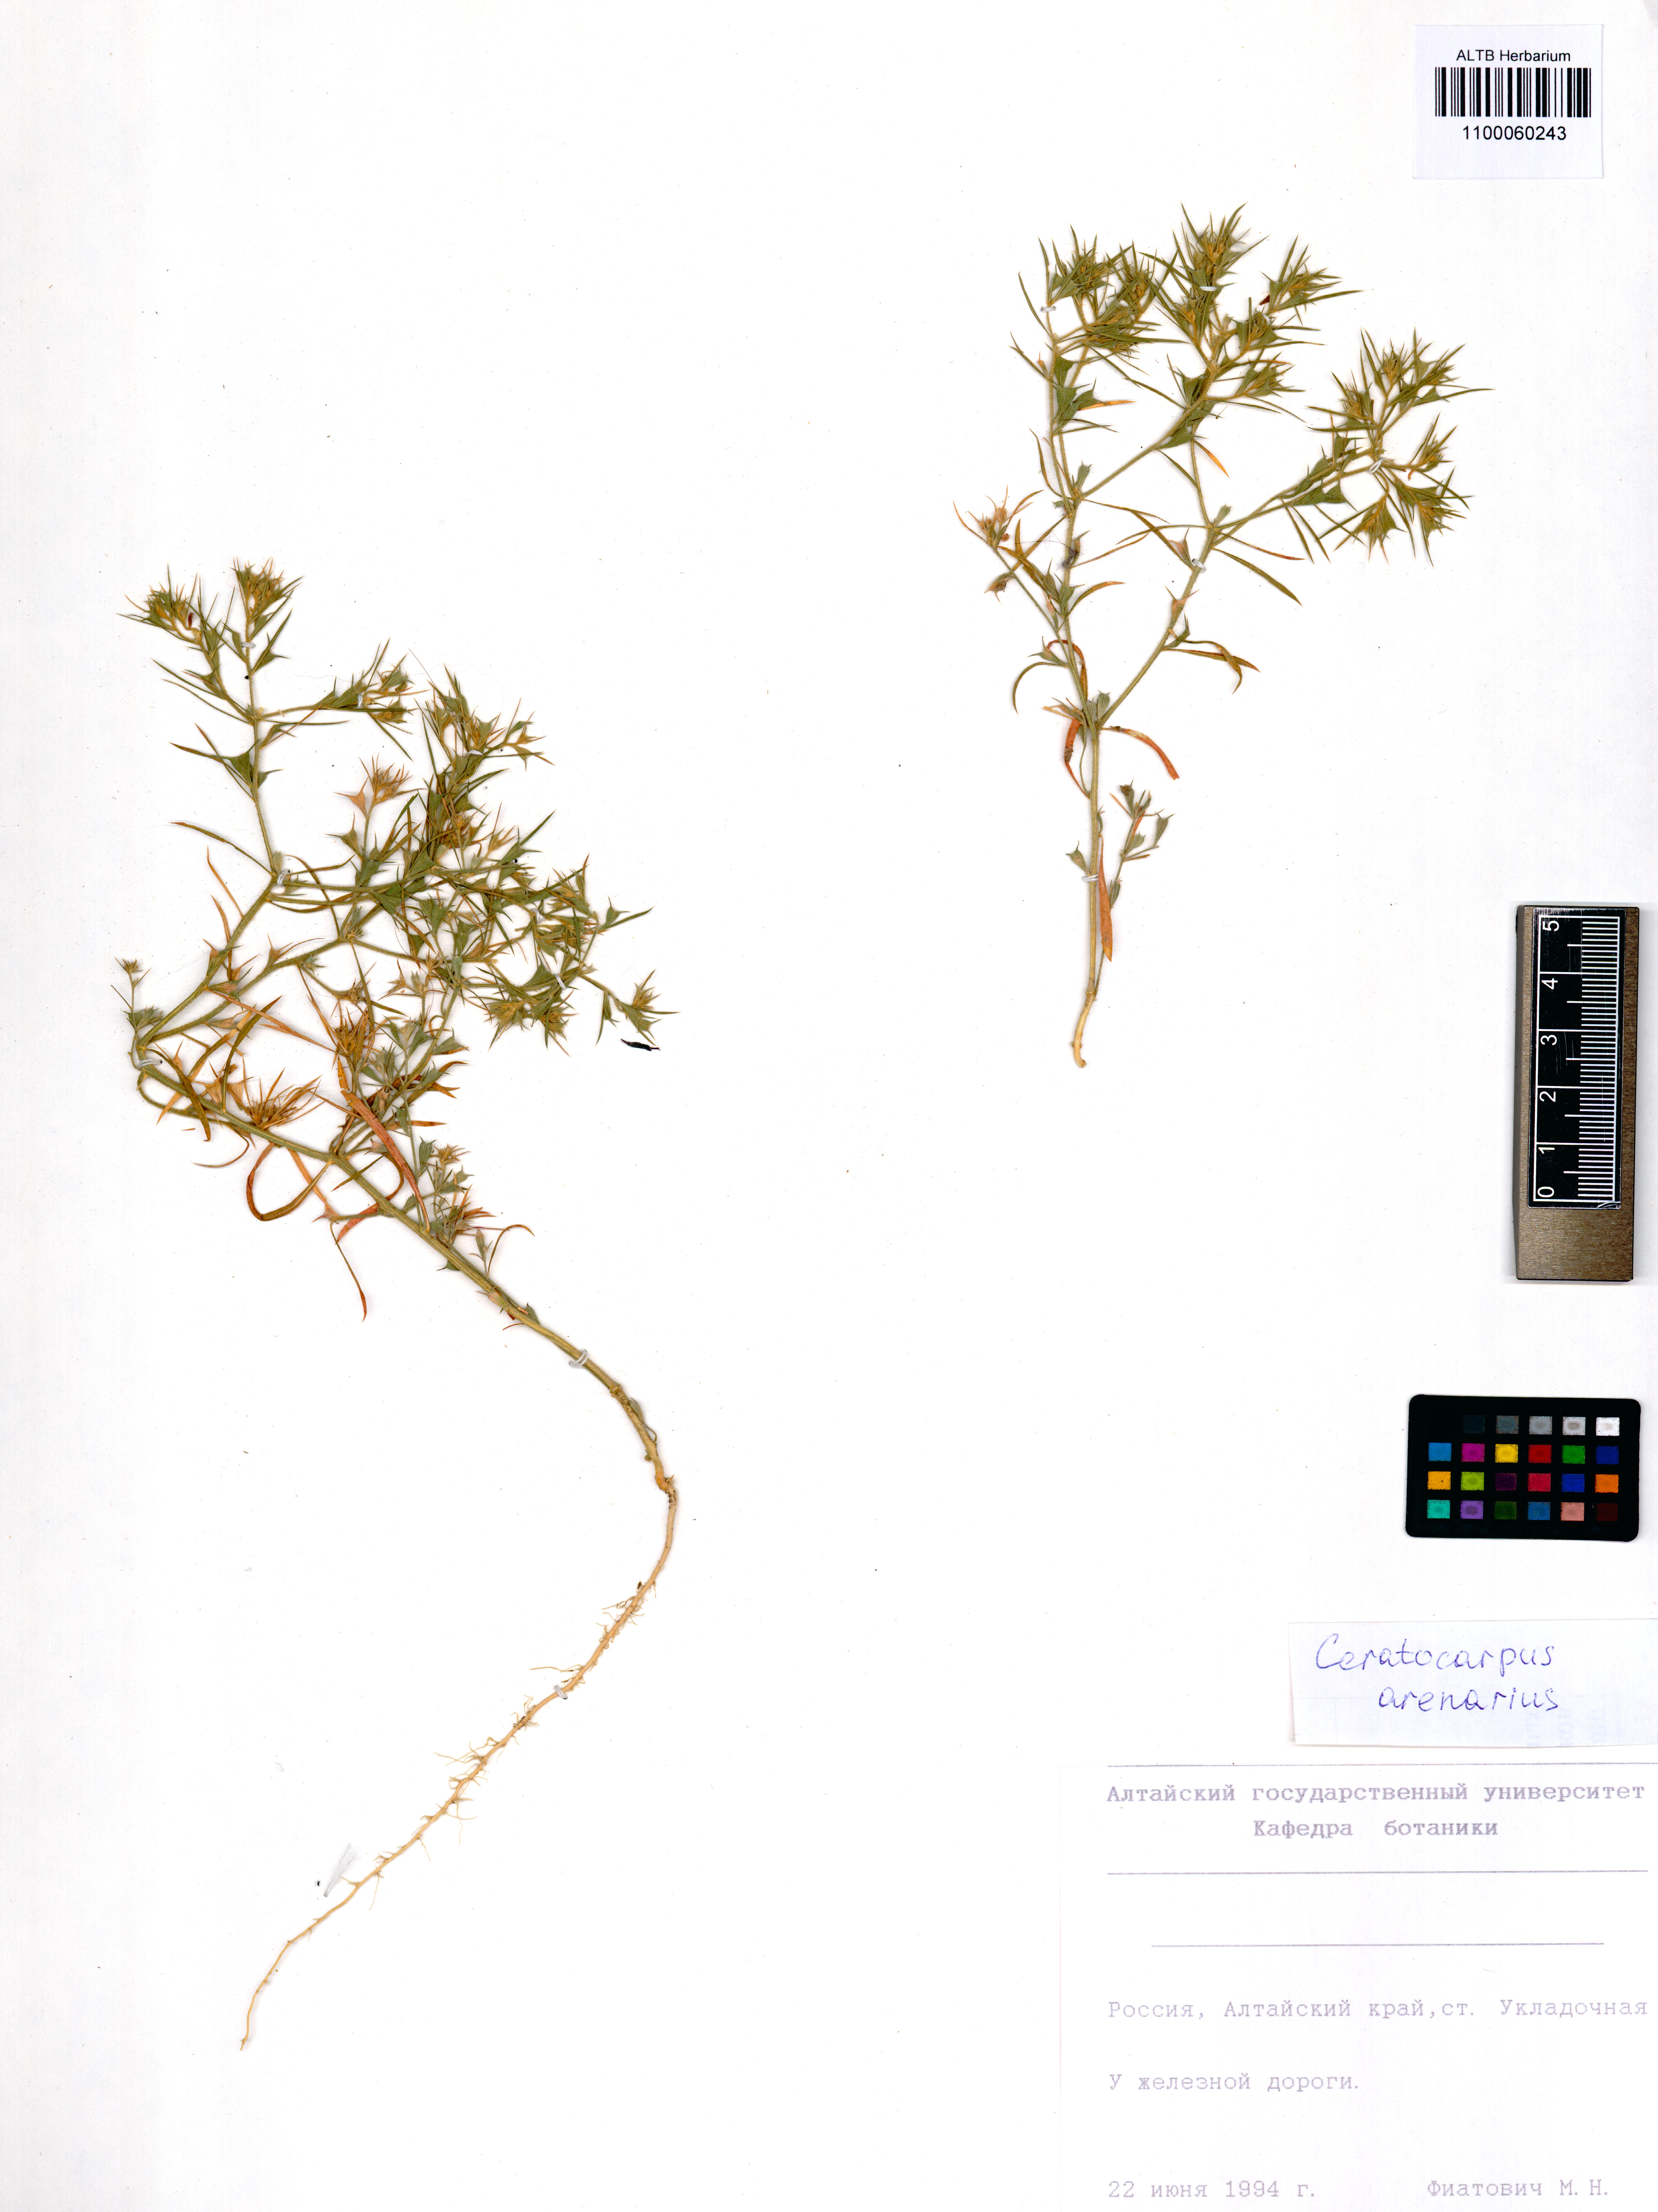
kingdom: Plantae
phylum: Tracheophyta
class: Magnoliopsida
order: Caryophyllales
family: Amaranthaceae
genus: Ceratocarpus
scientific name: Ceratocarpus arenarius
